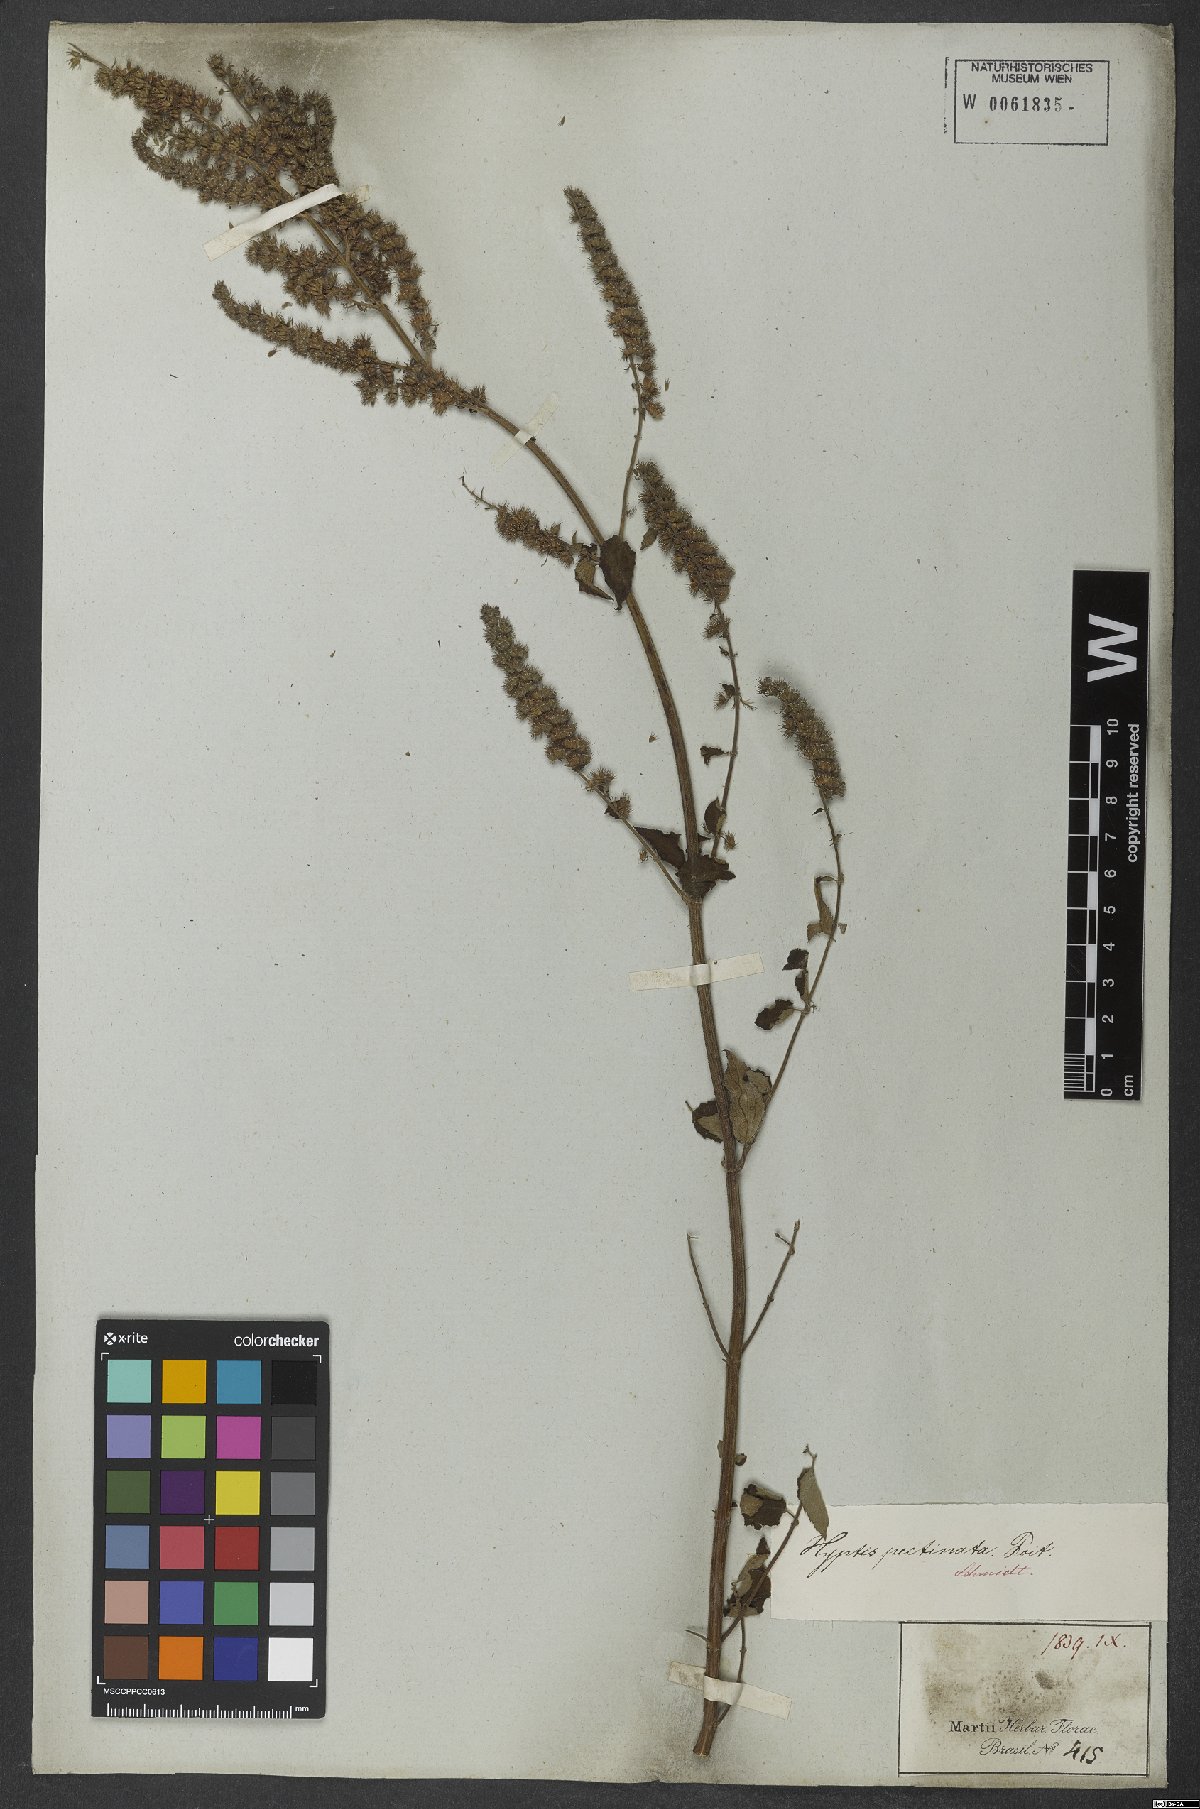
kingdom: Plantae
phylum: Tracheophyta
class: Magnoliopsida
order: Lamiales
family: Lamiaceae
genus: Mesosphaerum
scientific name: Mesosphaerum pectinatum
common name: Comb hyptis
